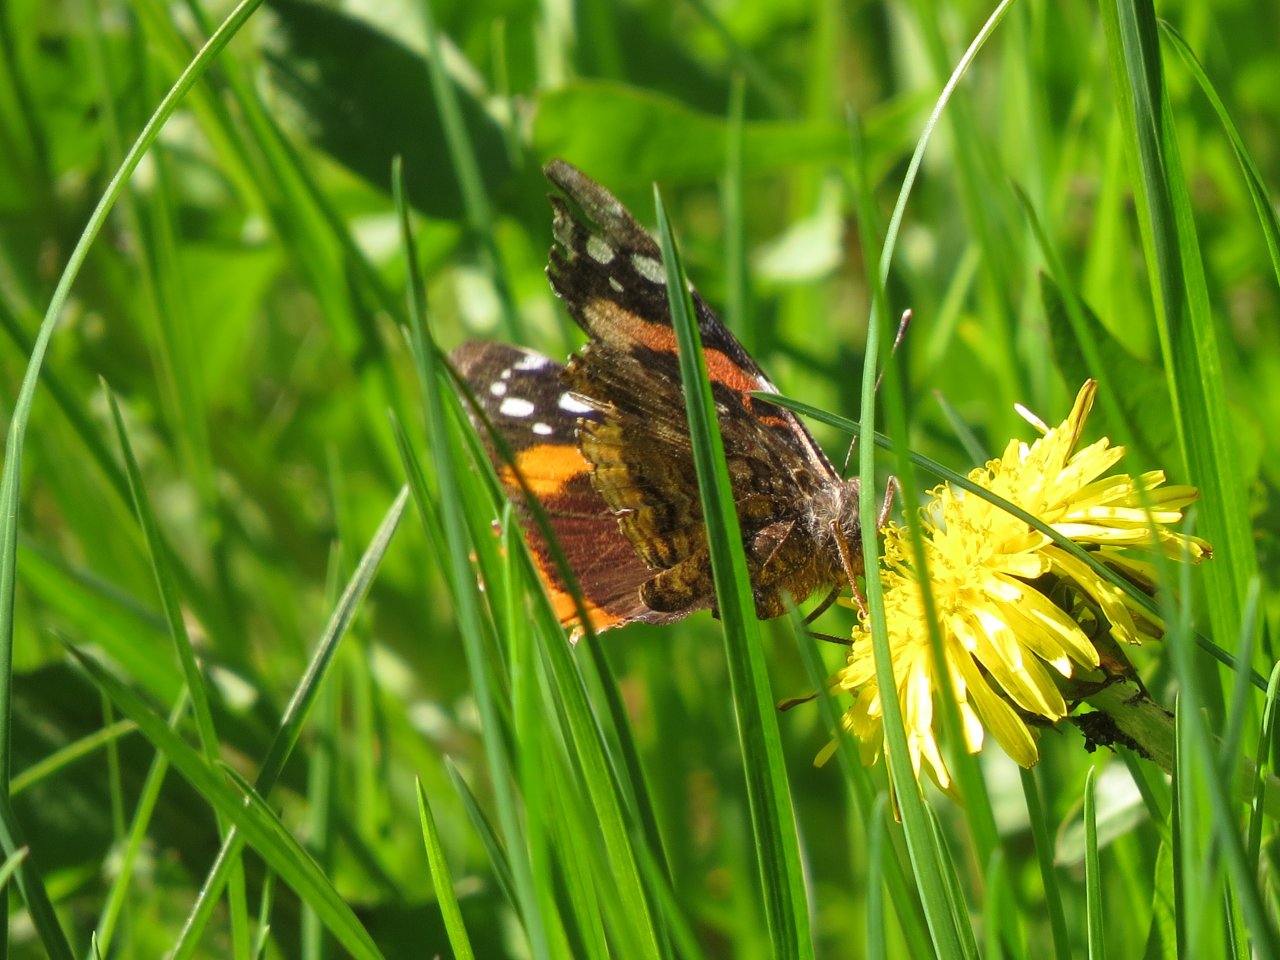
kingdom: Animalia
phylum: Arthropoda
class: Insecta
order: Lepidoptera
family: Nymphalidae
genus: Vanessa
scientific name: Vanessa atalanta
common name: Red Admiral
